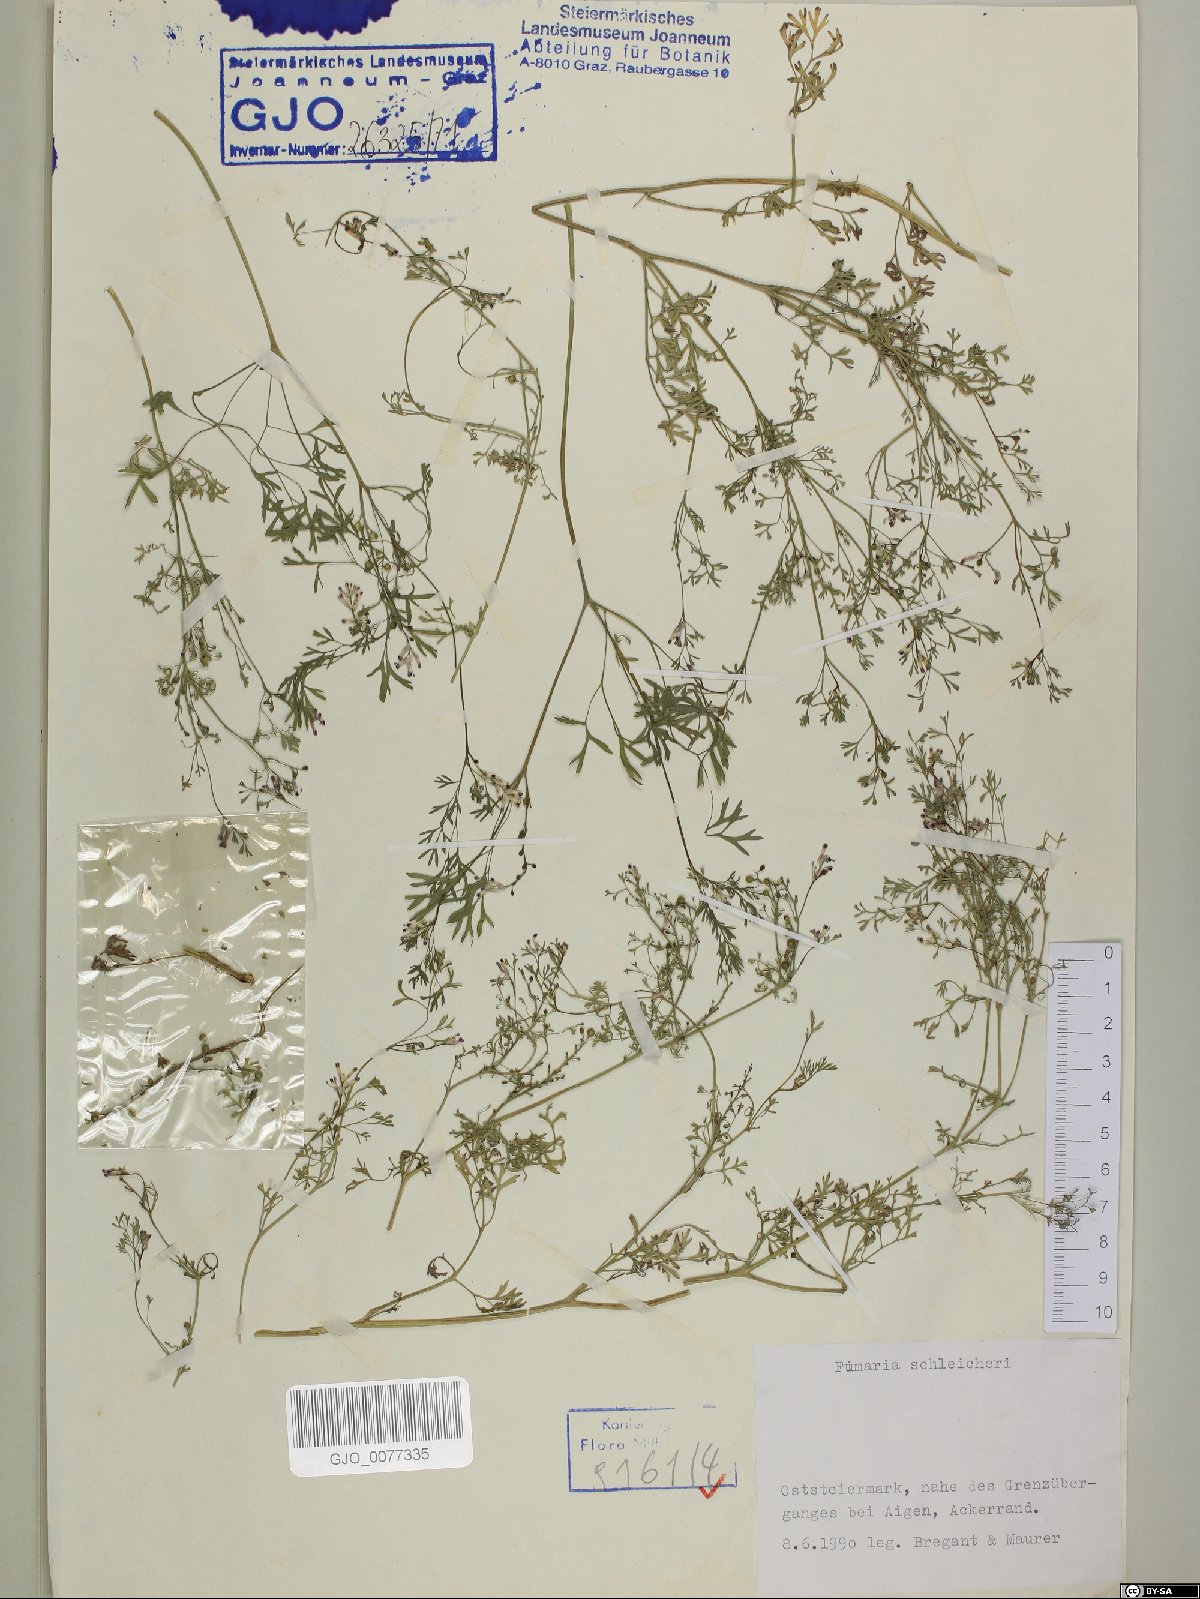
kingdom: Plantae
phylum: Tracheophyta
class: Magnoliopsida
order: Ranunculales
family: Papaveraceae
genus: Fumaria
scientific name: Fumaria schleicheri
